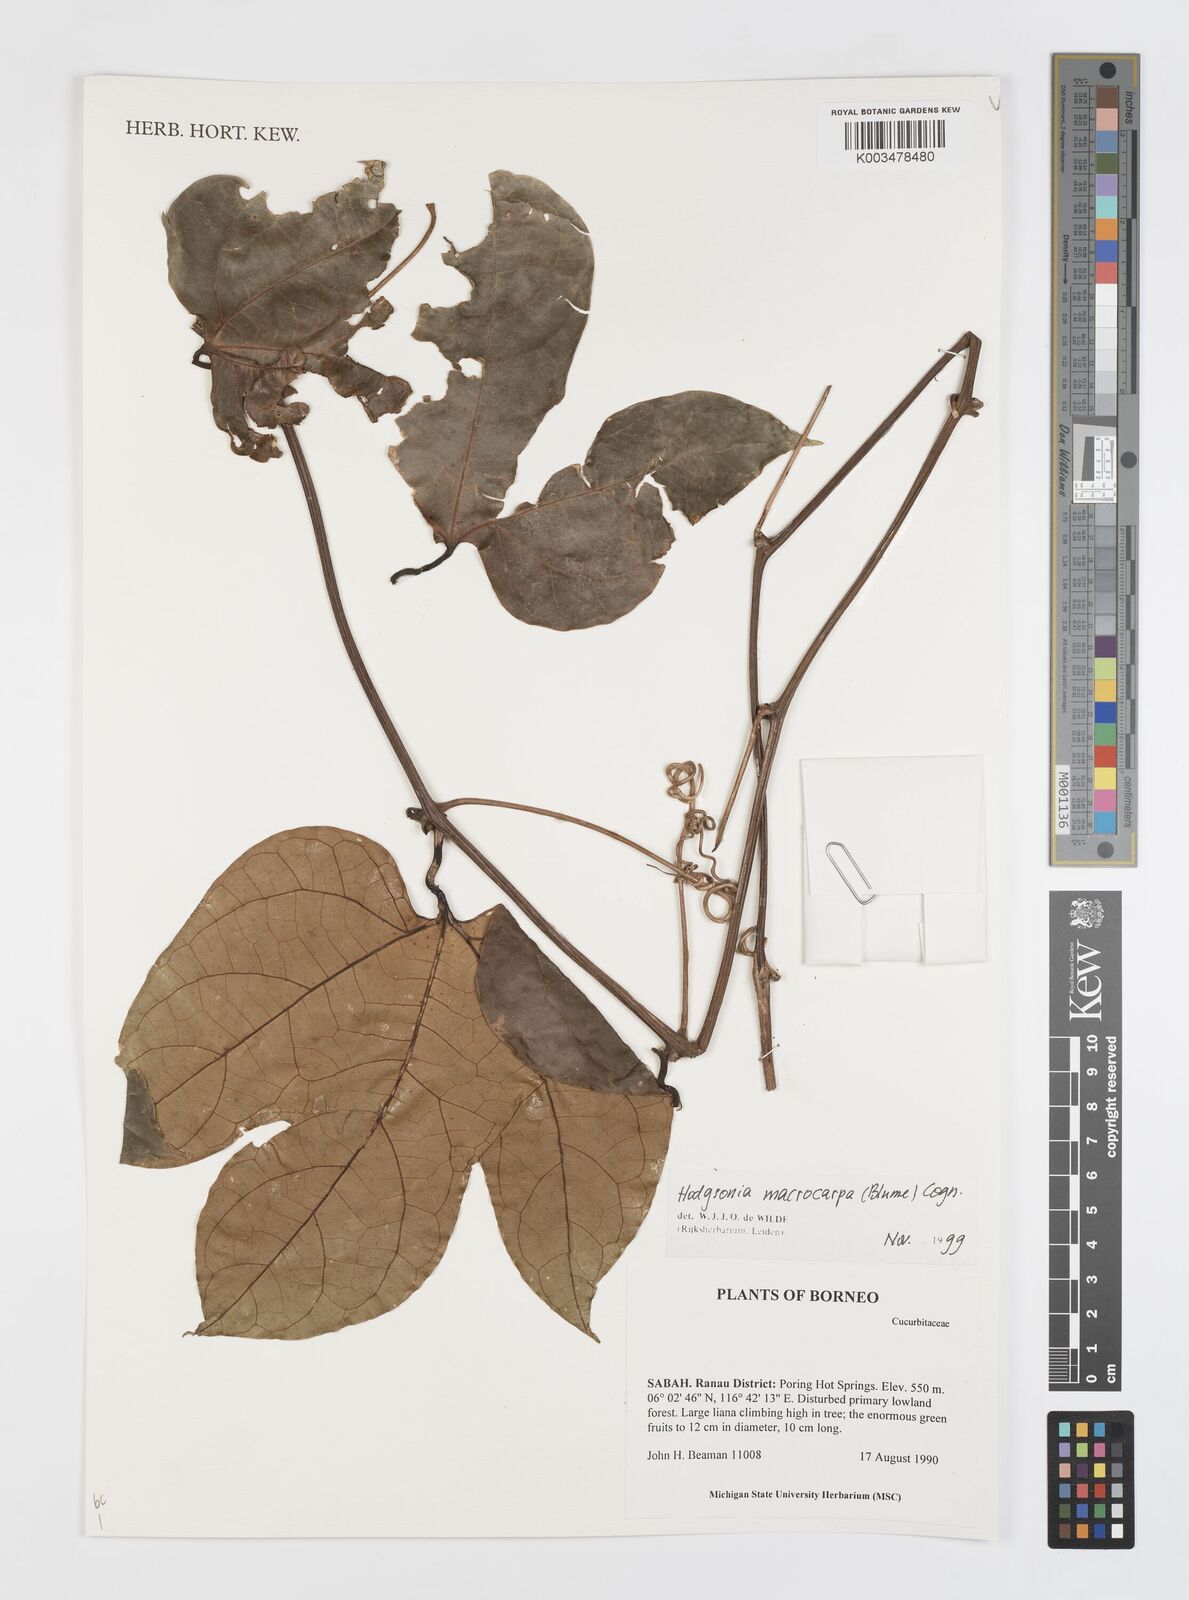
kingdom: Plantae
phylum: Tracheophyta
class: Magnoliopsida
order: Cucurbitales
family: Cucurbitaceae
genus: Hodgsonia
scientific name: Hodgsonia macrocarpa
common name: Chinese lardfruit
